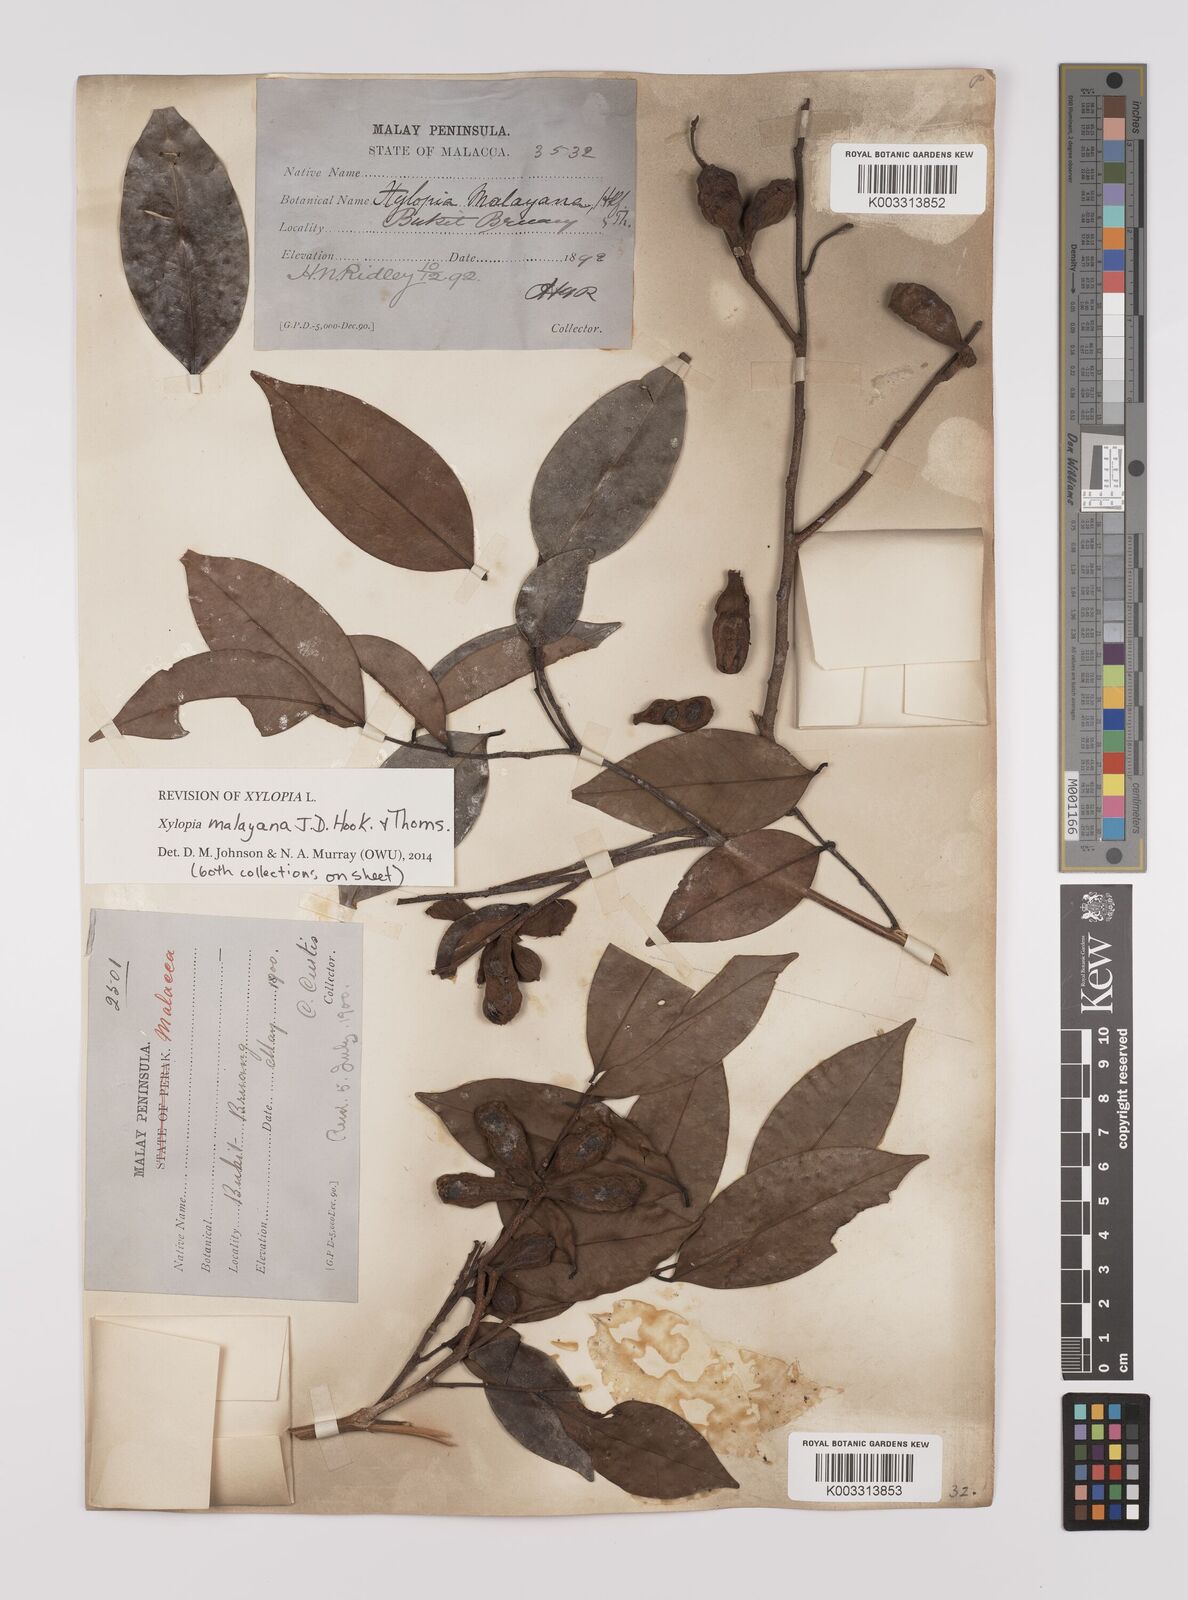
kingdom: Plantae
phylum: Tracheophyta
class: Magnoliopsida
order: Magnoliales
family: Annonaceae
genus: Xylopia
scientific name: Xylopia malayana
